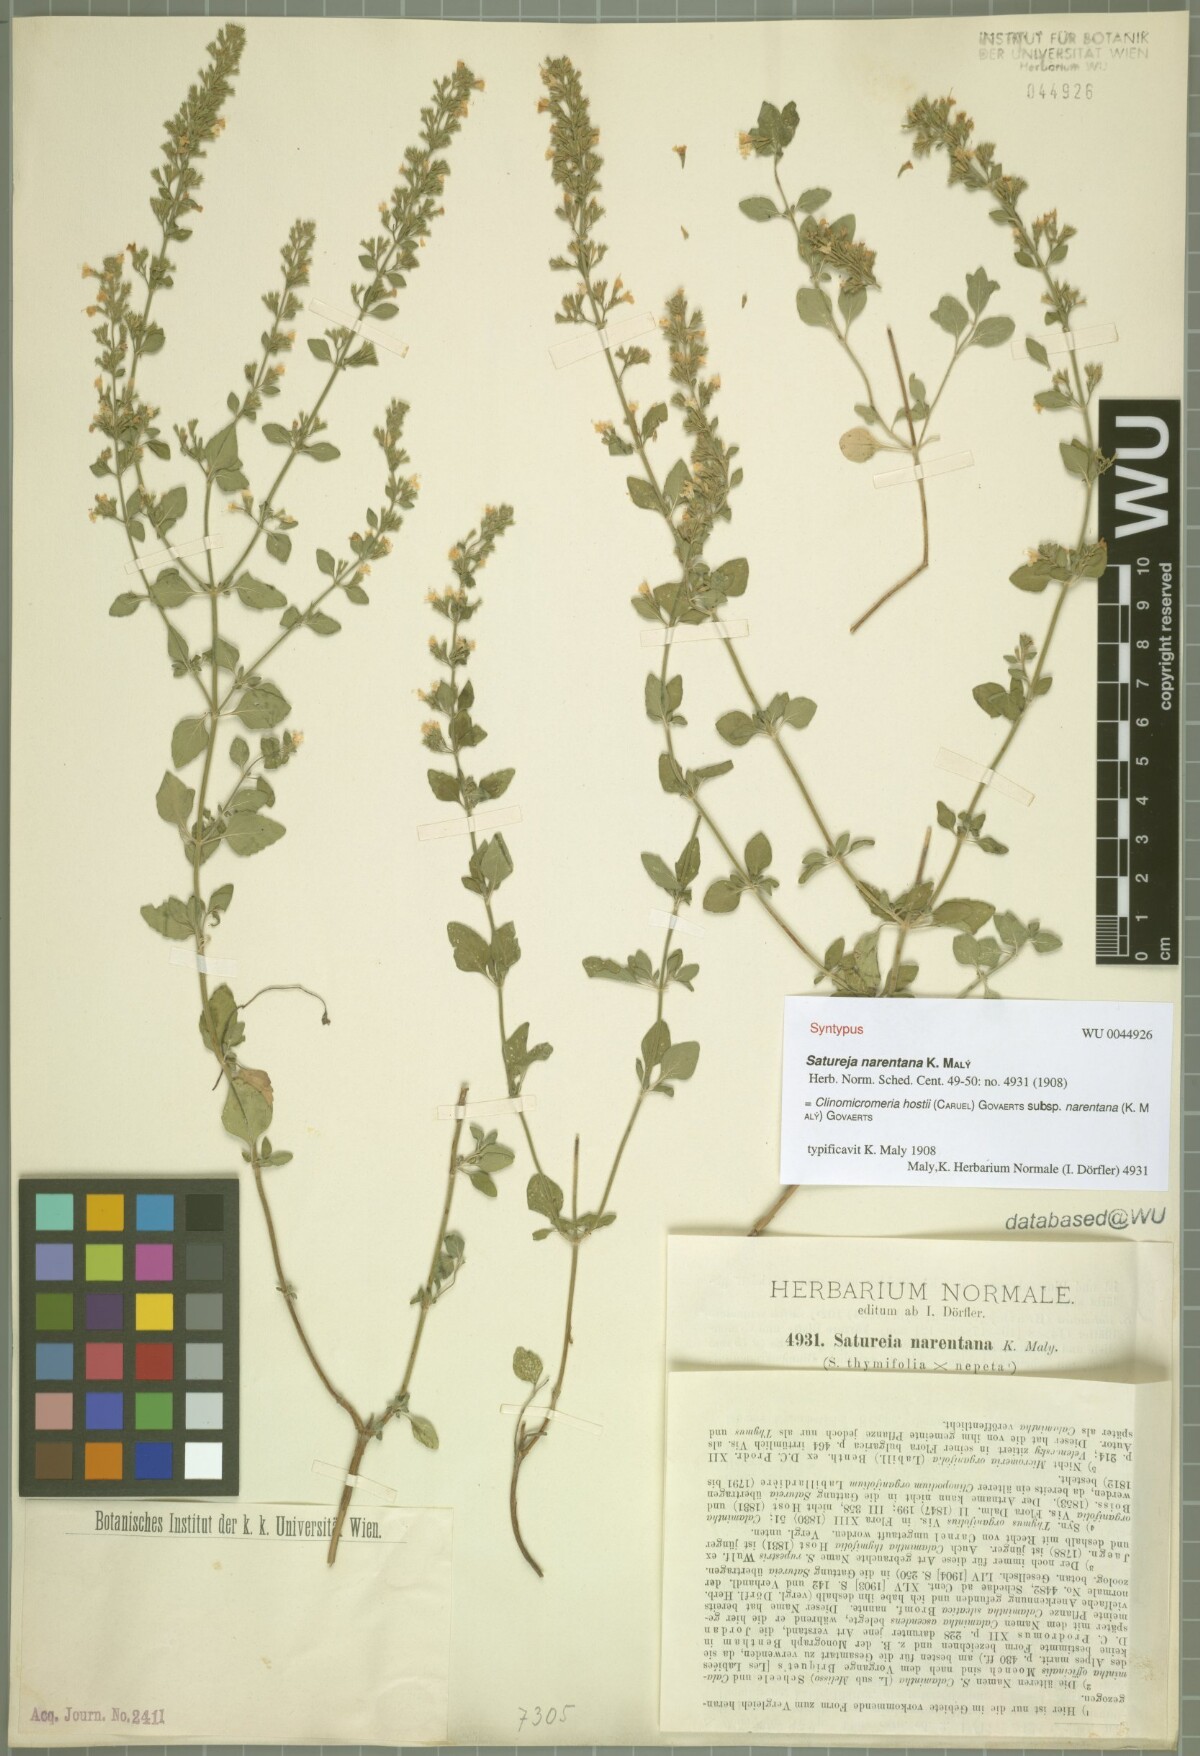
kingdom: Plantae
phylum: Tracheophyta
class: Magnoliopsida
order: Lamiales
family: Lamiaceae
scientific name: Lamiaceae
